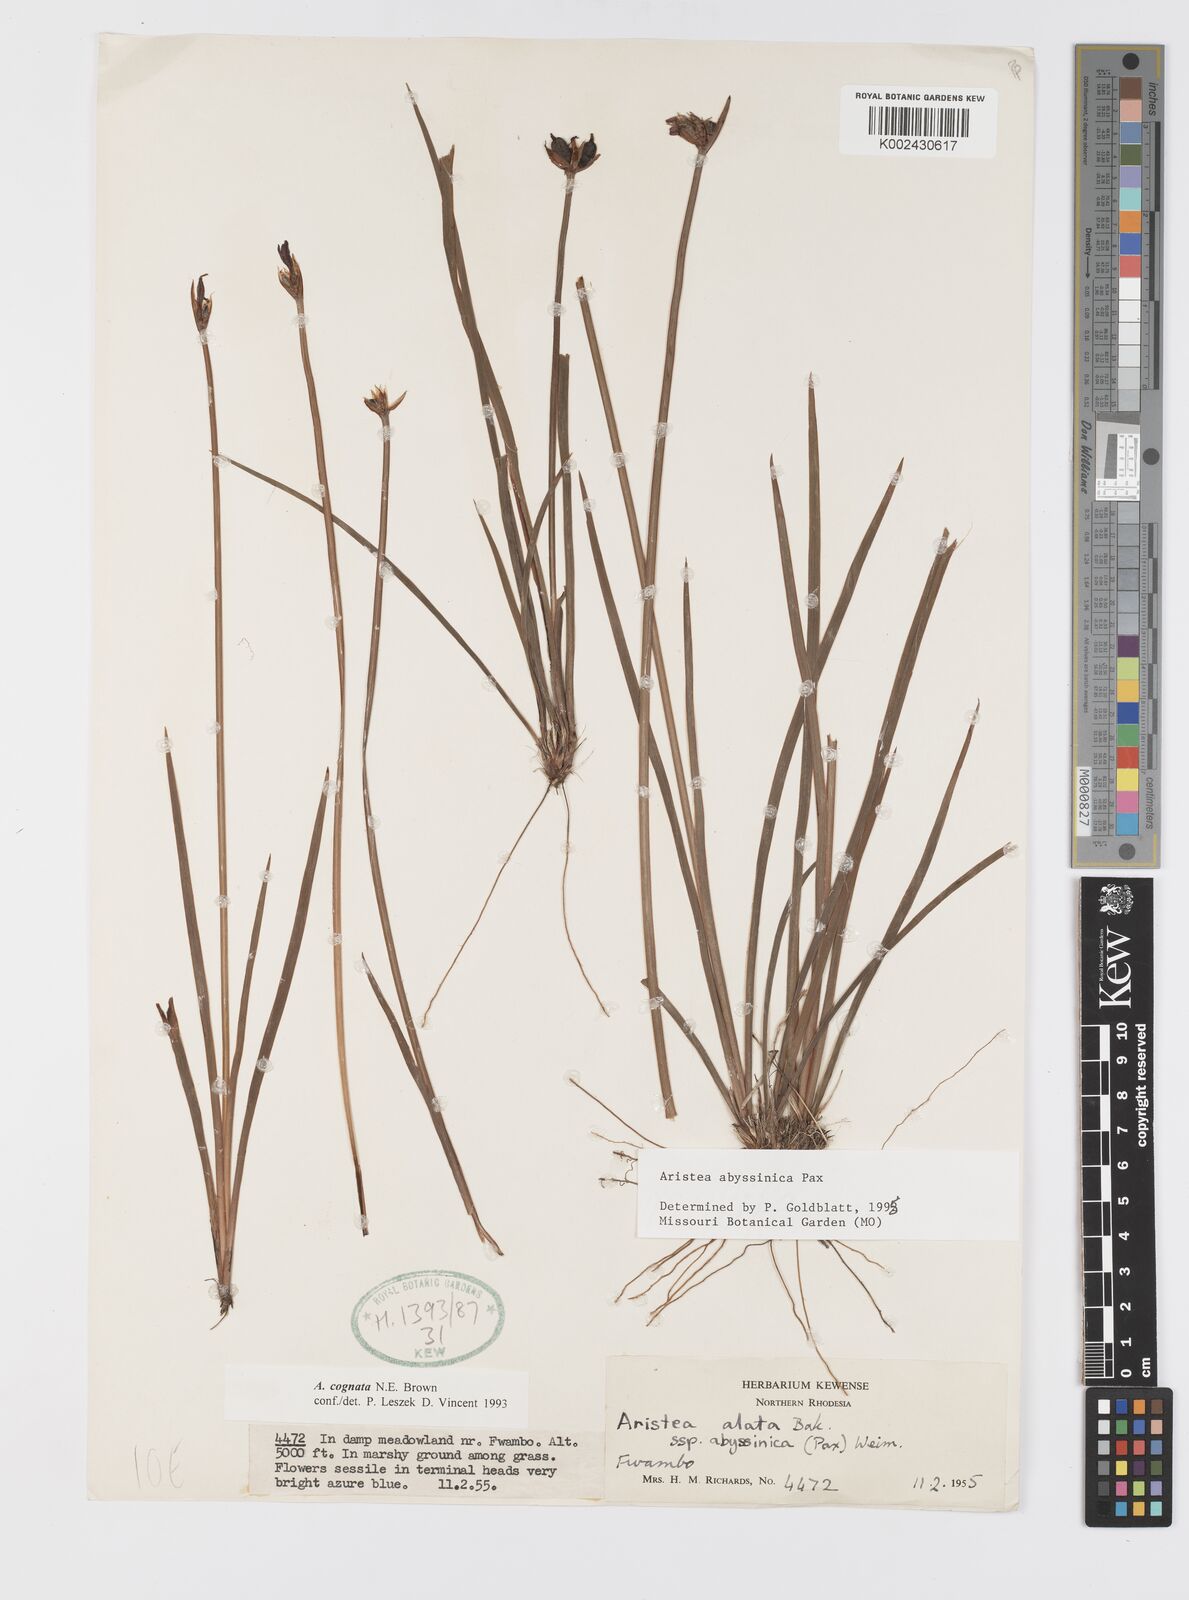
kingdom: Plantae
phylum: Tracheophyta
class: Liliopsida
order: Asparagales
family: Iridaceae
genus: Aristea
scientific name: Aristea abyssinica
